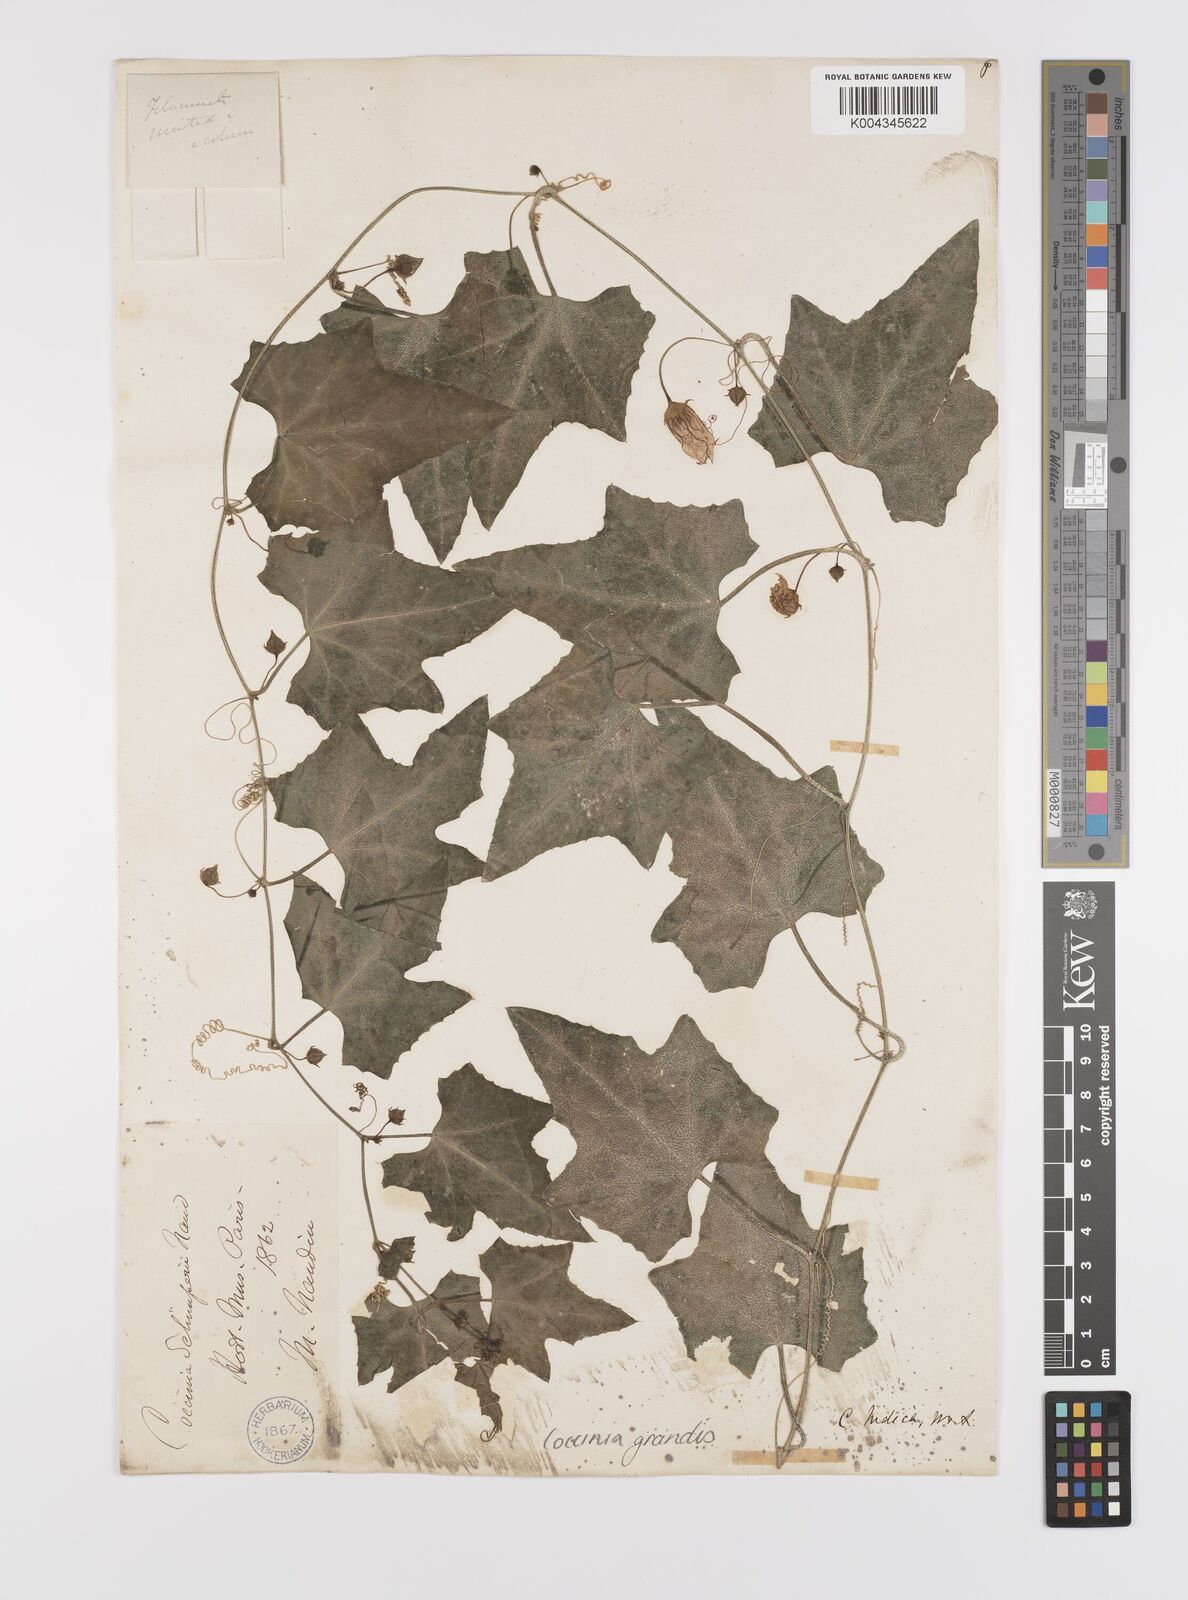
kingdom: Plantae
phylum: Tracheophyta
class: Magnoliopsida
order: Cucurbitales
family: Cucurbitaceae
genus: Coccinia
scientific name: Coccinia grandis
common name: Ivy gourd
